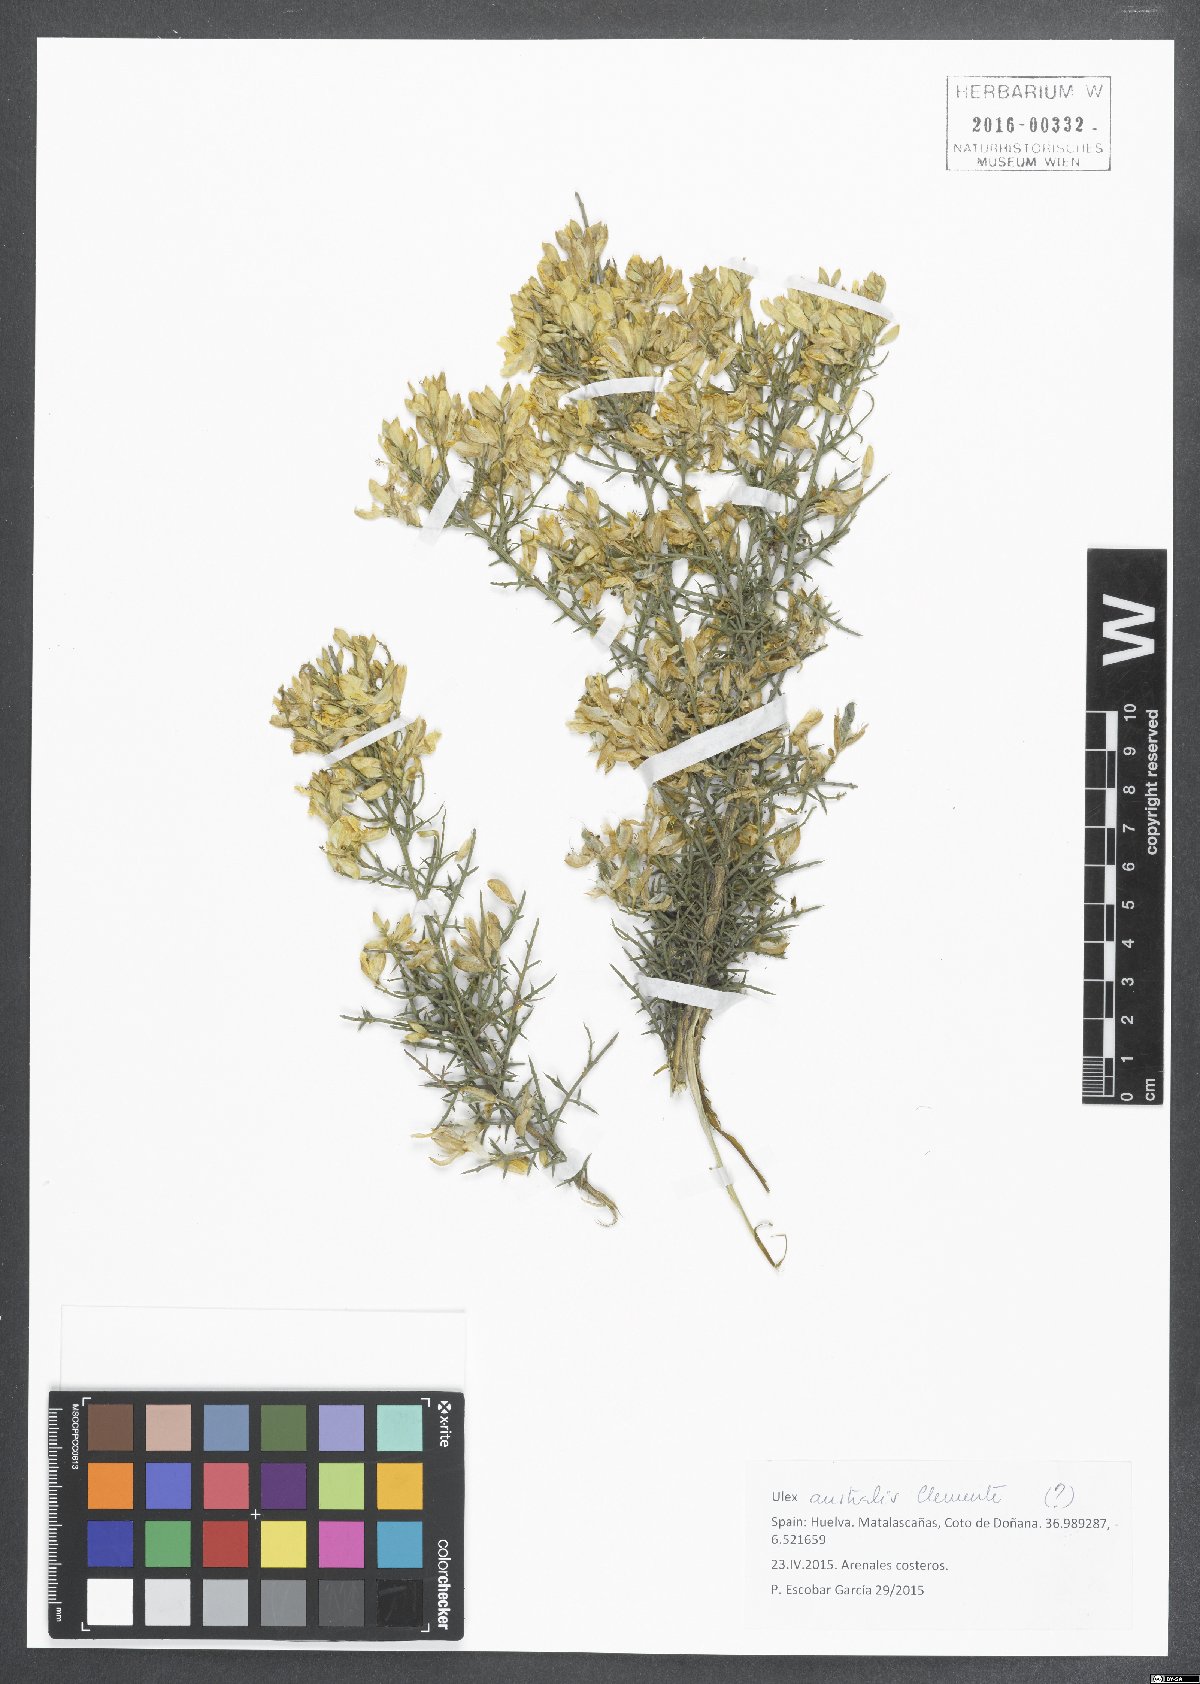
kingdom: Plantae
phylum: Tracheophyta
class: Magnoliopsida
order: Fabales
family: Fabaceae
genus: Ulex
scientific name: Ulex eriocladus
